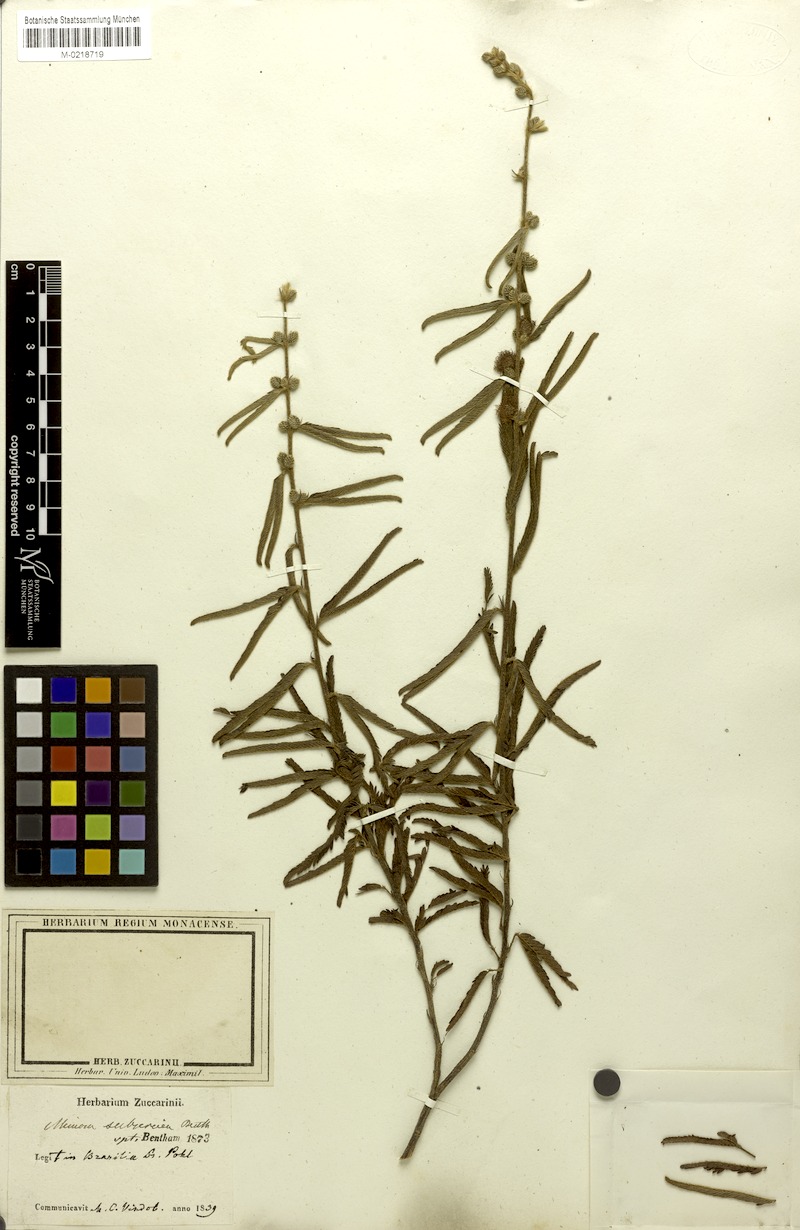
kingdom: Plantae
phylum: Tracheophyta
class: Magnoliopsida
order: Fabales
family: Fabaceae
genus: Mimosa
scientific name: Mimosa xanthocentra
